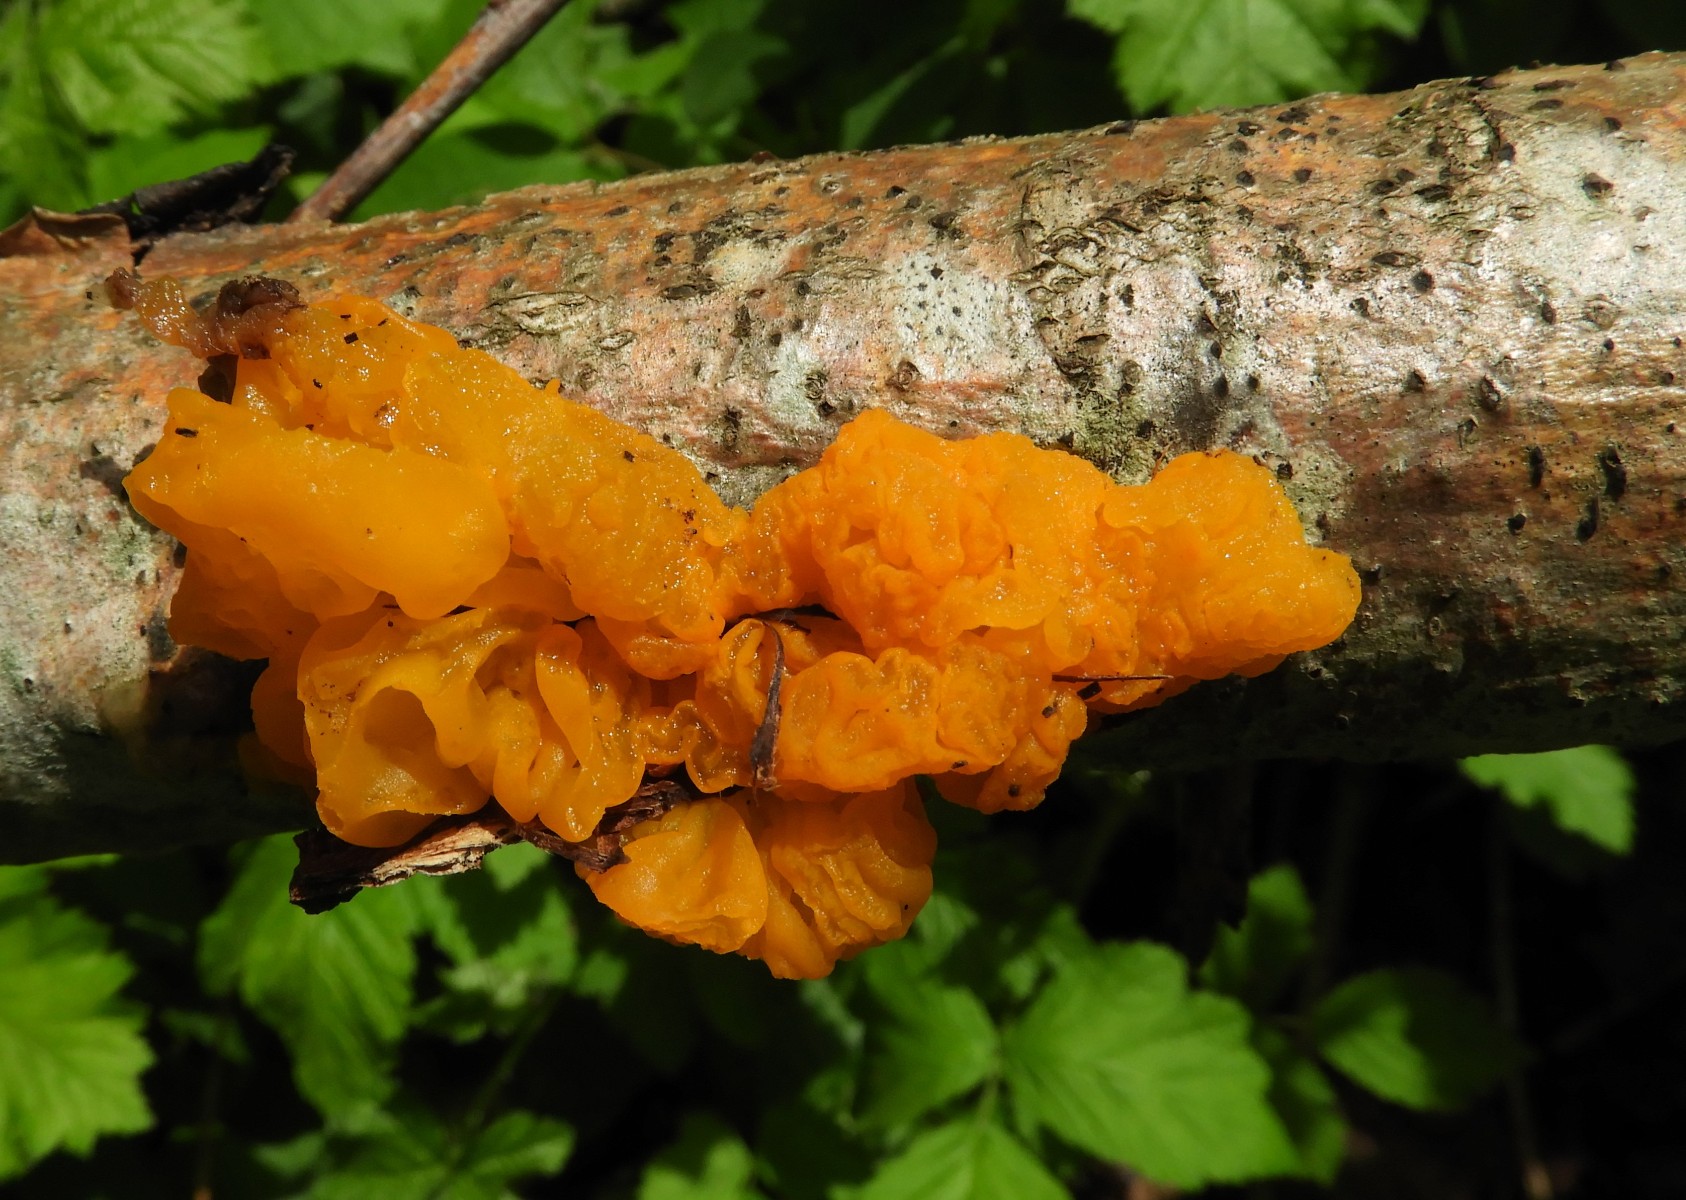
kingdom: Fungi
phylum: Basidiomycota
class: Tremellomycetes
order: Tremellales
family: Tremellaceae
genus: Tremella
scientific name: Tremella mesenterica
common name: gul bævresvamp
